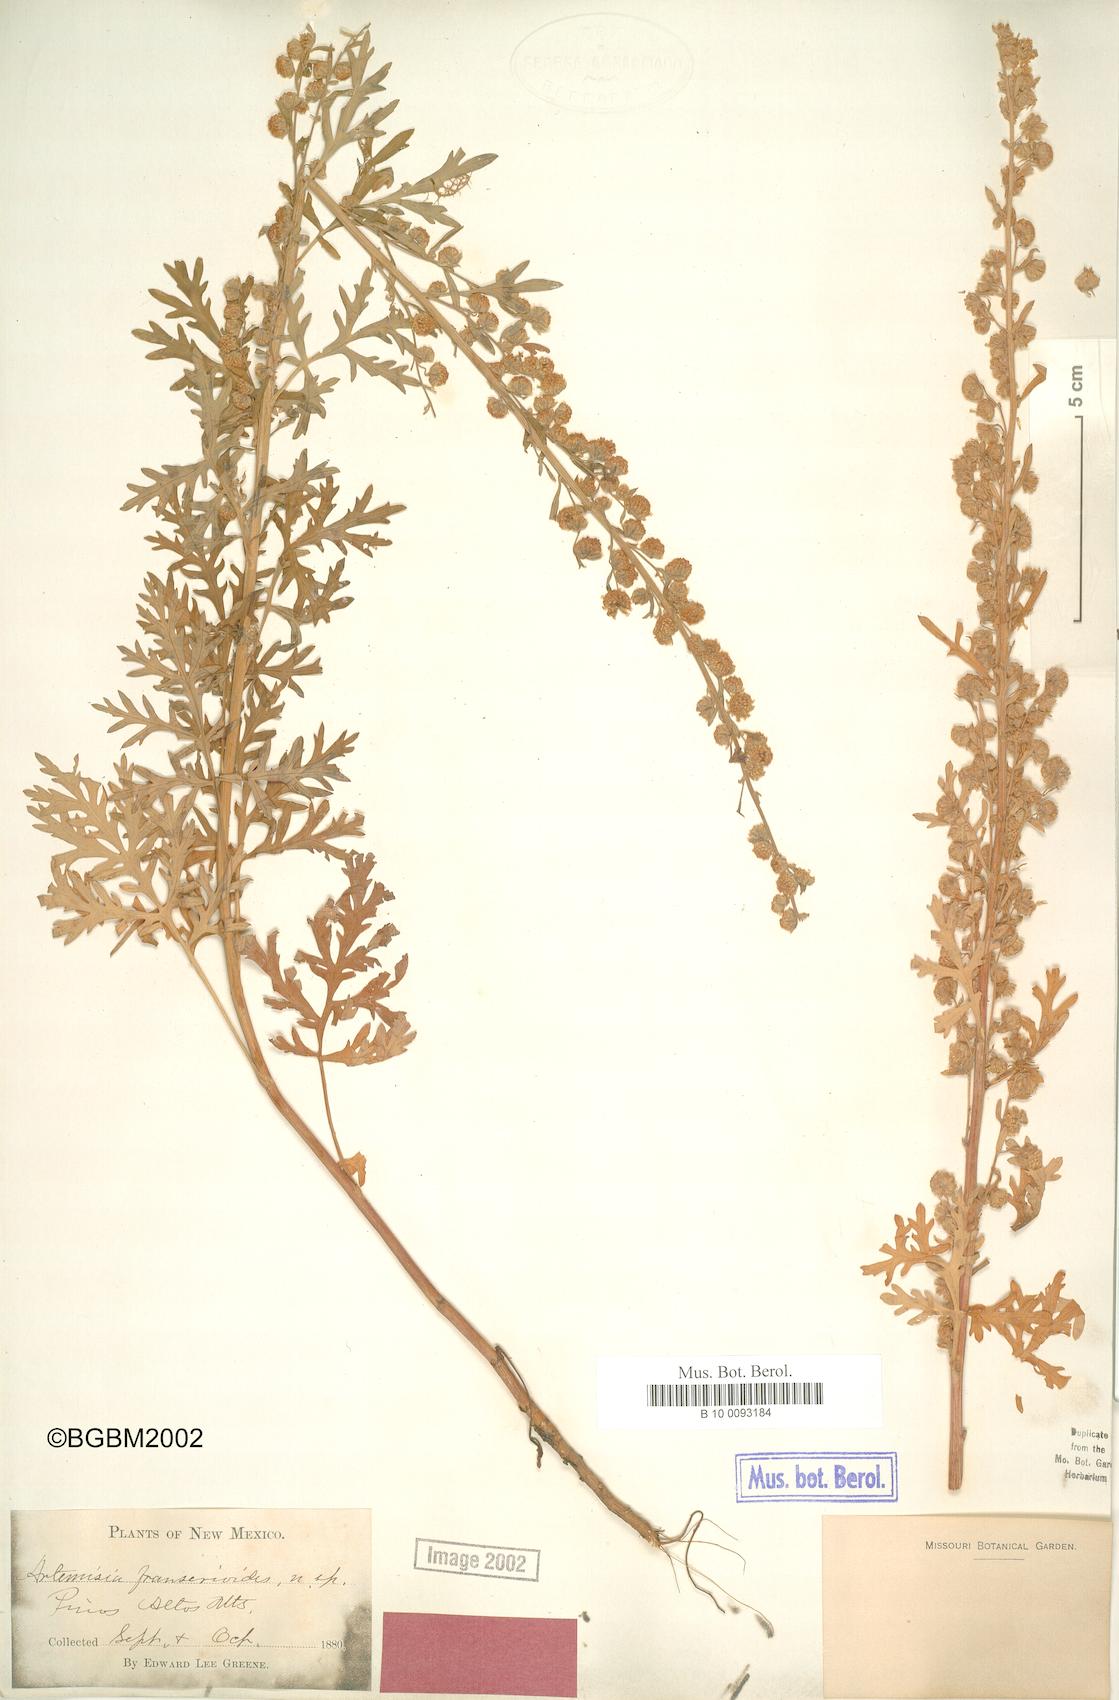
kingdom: Plantae
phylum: Tracheophyta
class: Magnoliopsida
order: Asterales
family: Asteraceae
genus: Artemisia
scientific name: Artemisia franserioides
